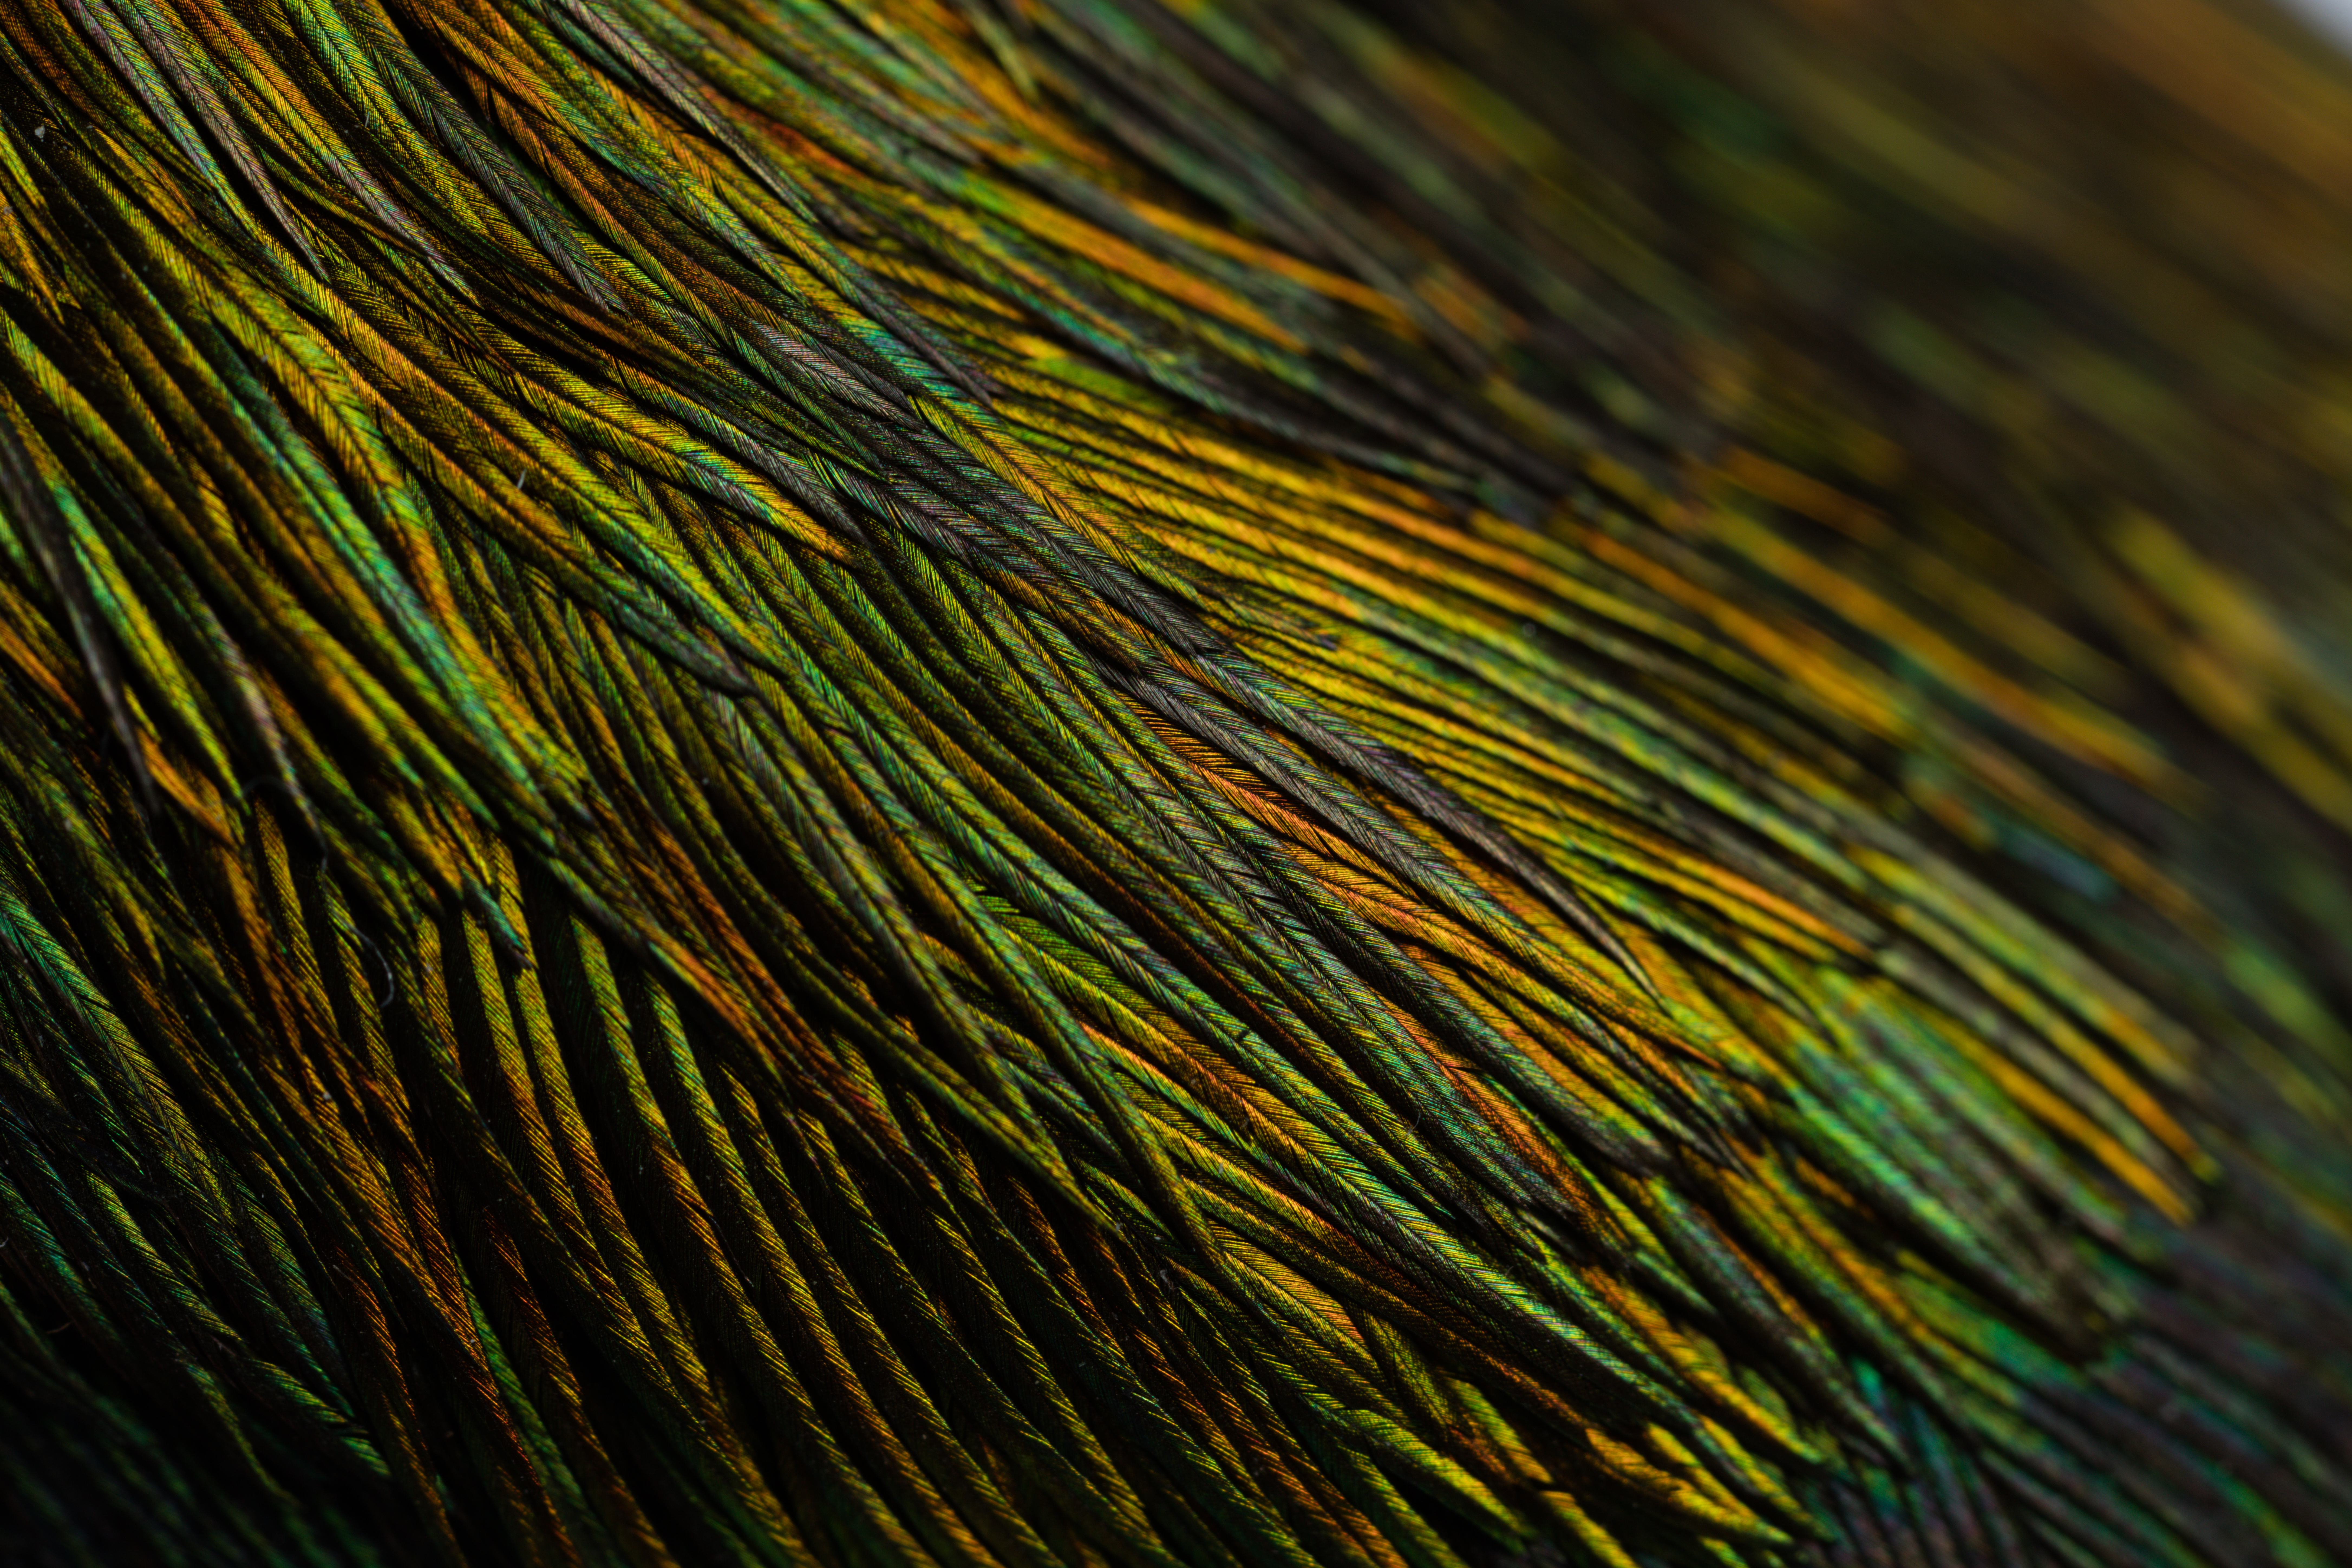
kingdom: Animalia
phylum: Chordata
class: Aves
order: Piciformes
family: Galbulidae
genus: Galbula
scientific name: Galbula galbula
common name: Green-tailed jacamar
